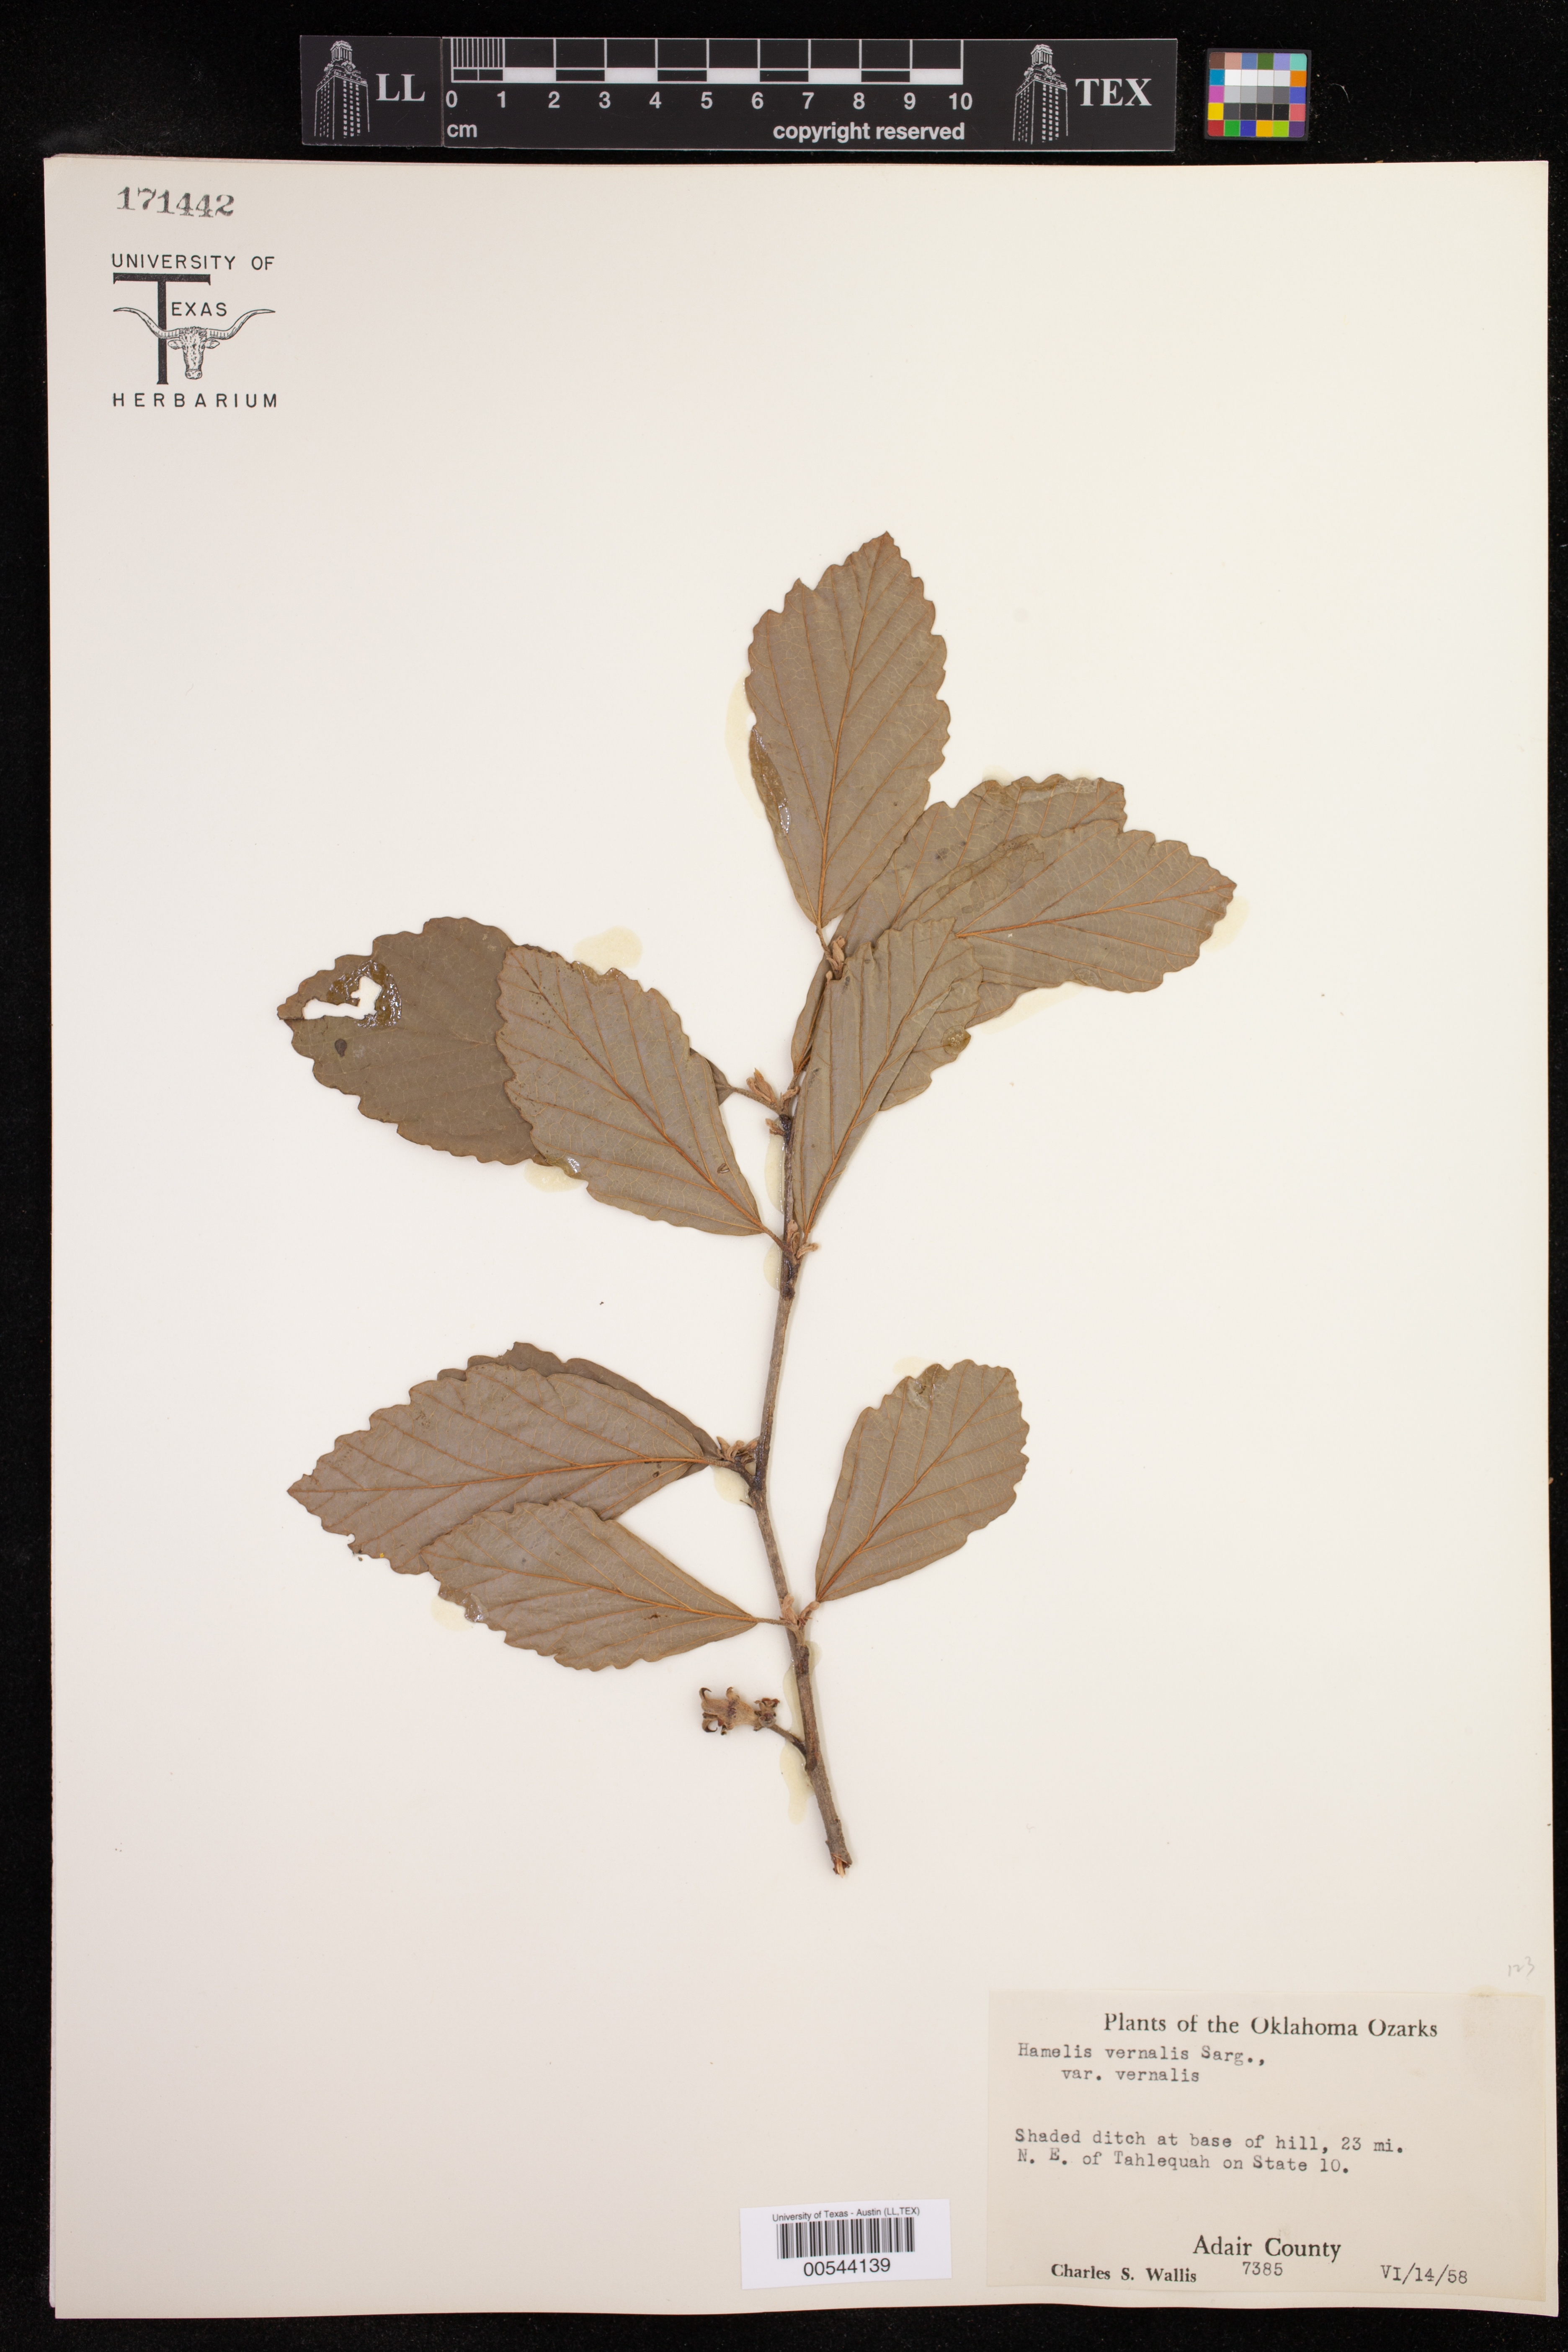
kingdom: Plantae
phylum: Tracheophyta
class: Magnoliopsida
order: Saxifragales
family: Hamamelidaceae
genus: Hamamelis
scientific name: Hamamelis vernalis
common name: Ozark witch-hazel
